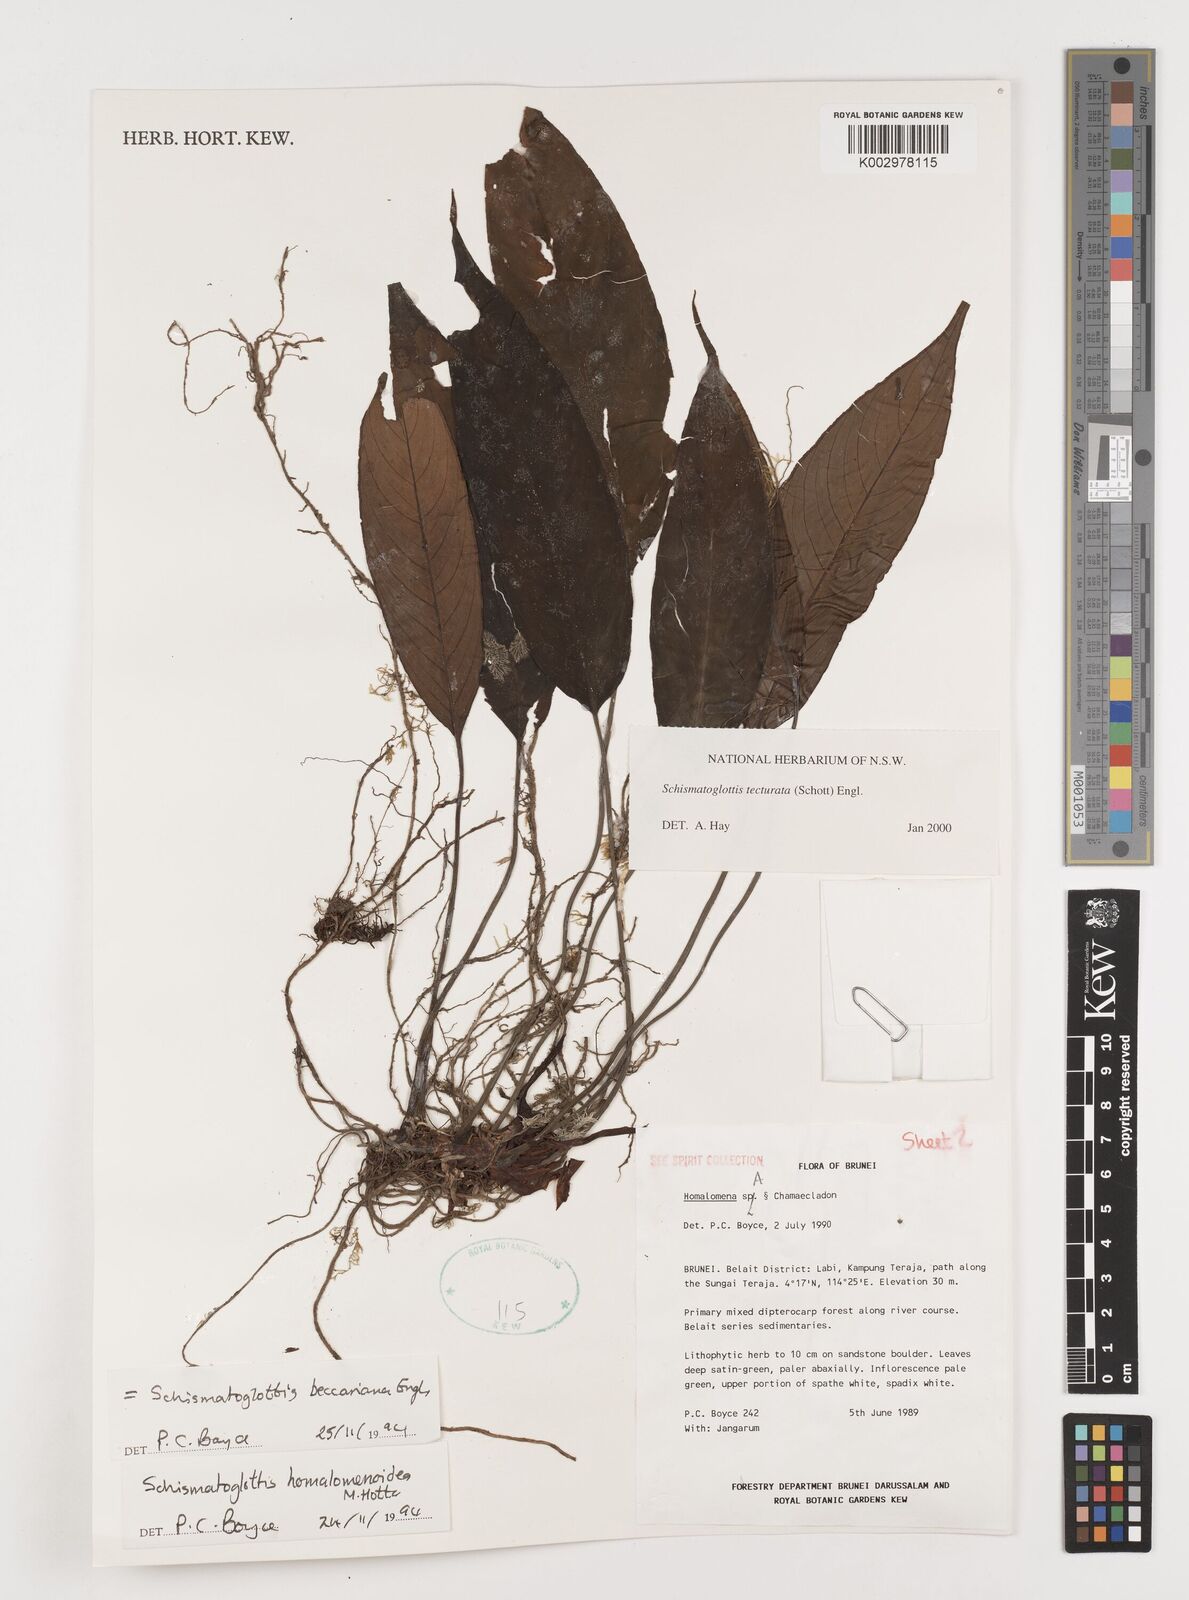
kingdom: Plantae
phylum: Tracheophyta
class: Liliopsida
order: Zingiberales
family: Costaceae
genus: Colobogynium
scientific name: Colobogynium variegatum
